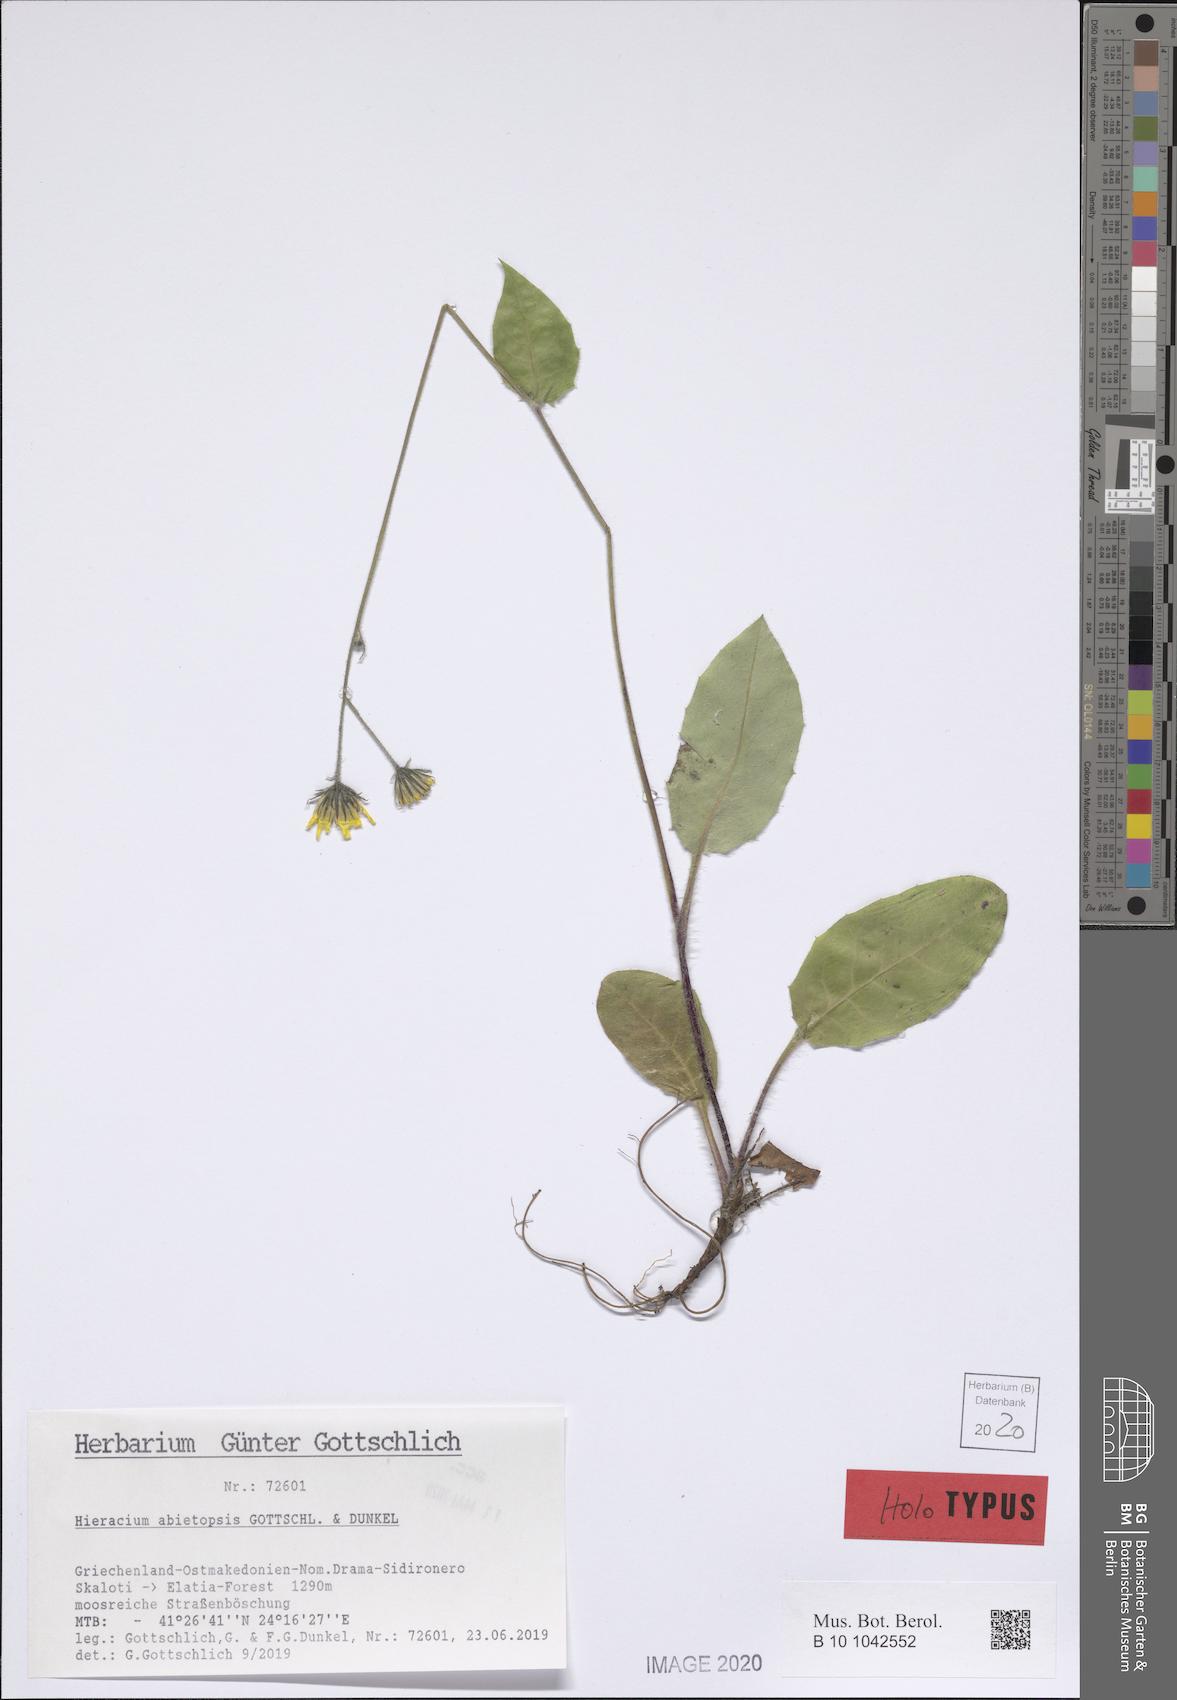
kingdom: Plantae
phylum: Tracheophyta
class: Magnoliopsida
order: Asterales
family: Asteraceae
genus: Hieracium
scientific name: Hieracium abietopsis
